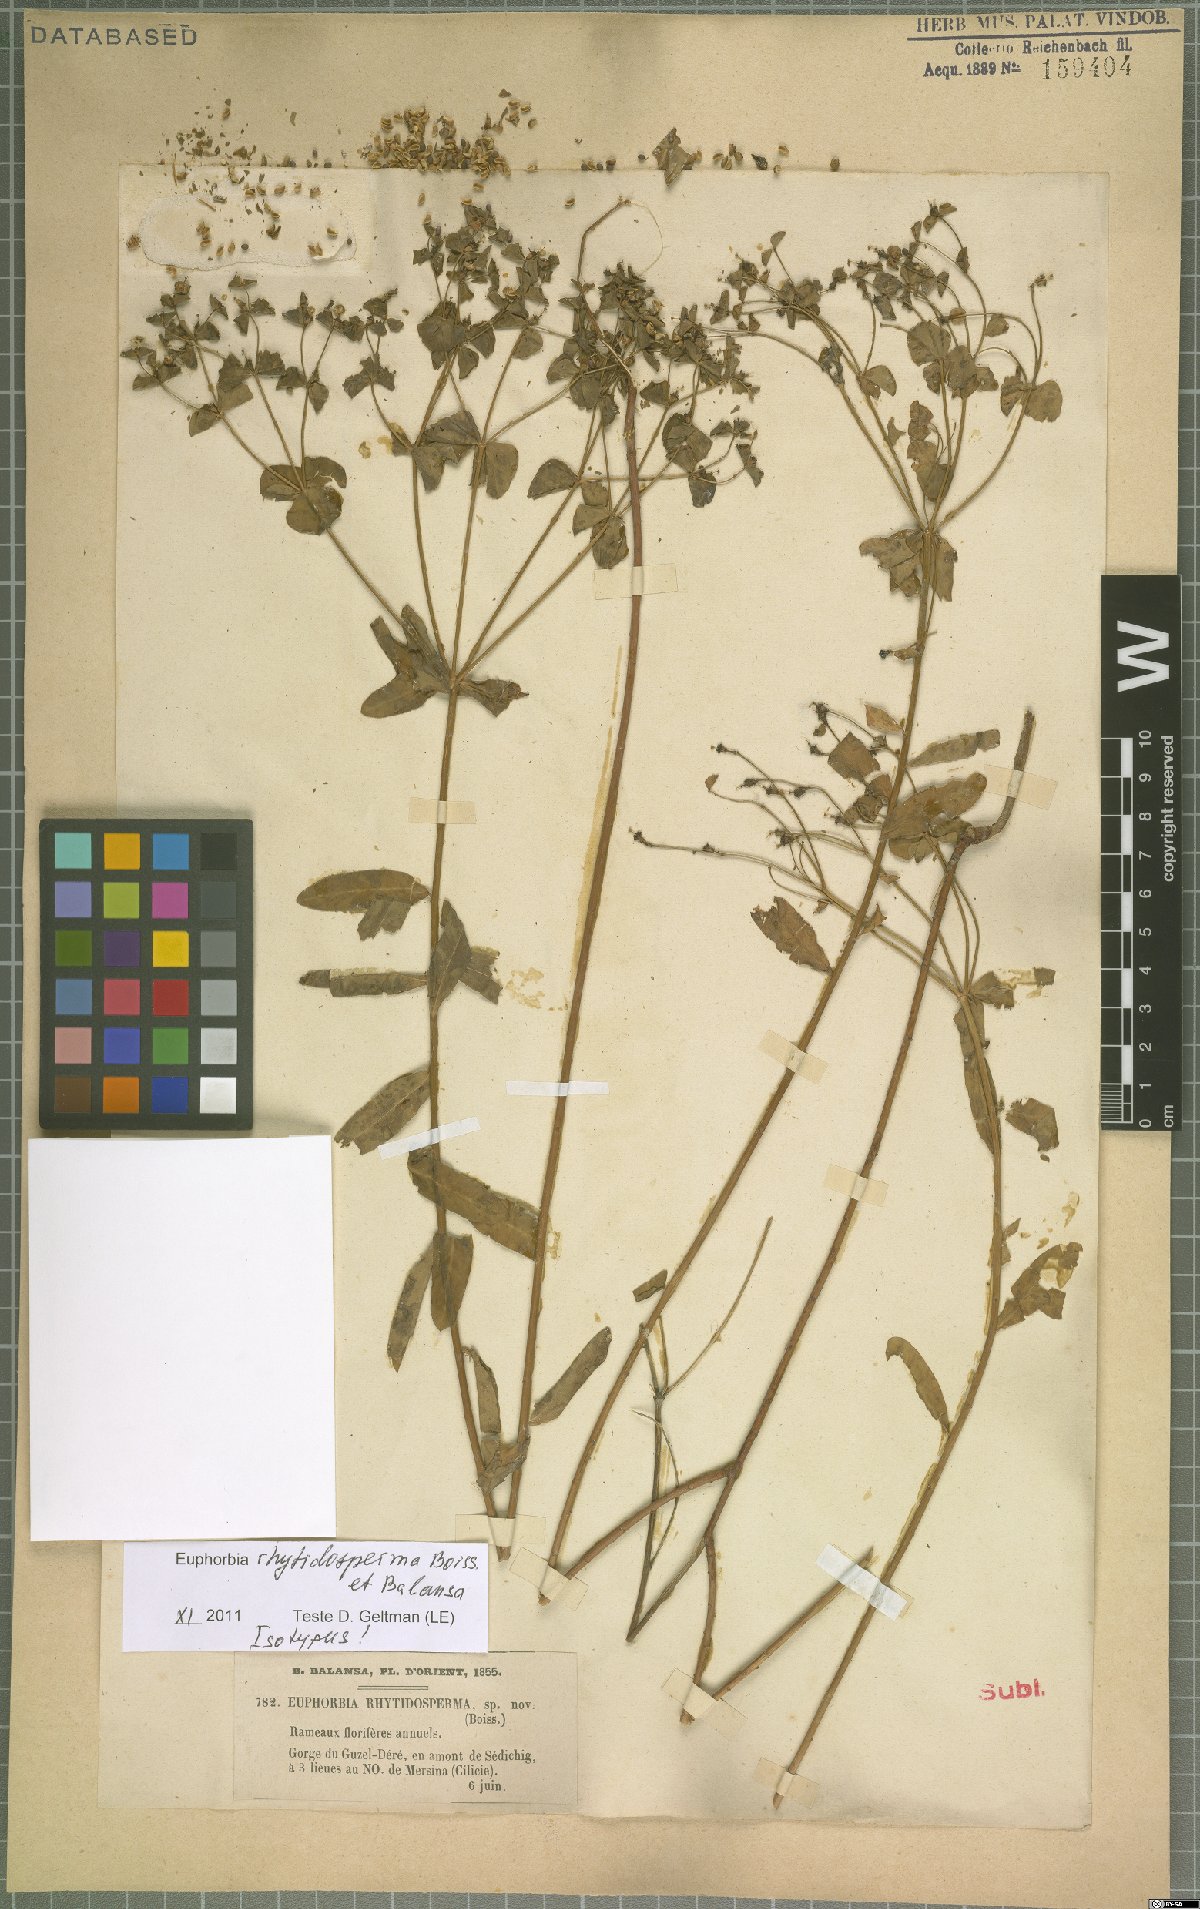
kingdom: Plantae
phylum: Tracheophyta
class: Magnoliopsida
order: Malpighiales
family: Euphorbiaceae
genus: Euphorbia
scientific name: Euphorbia rhytidosperma
